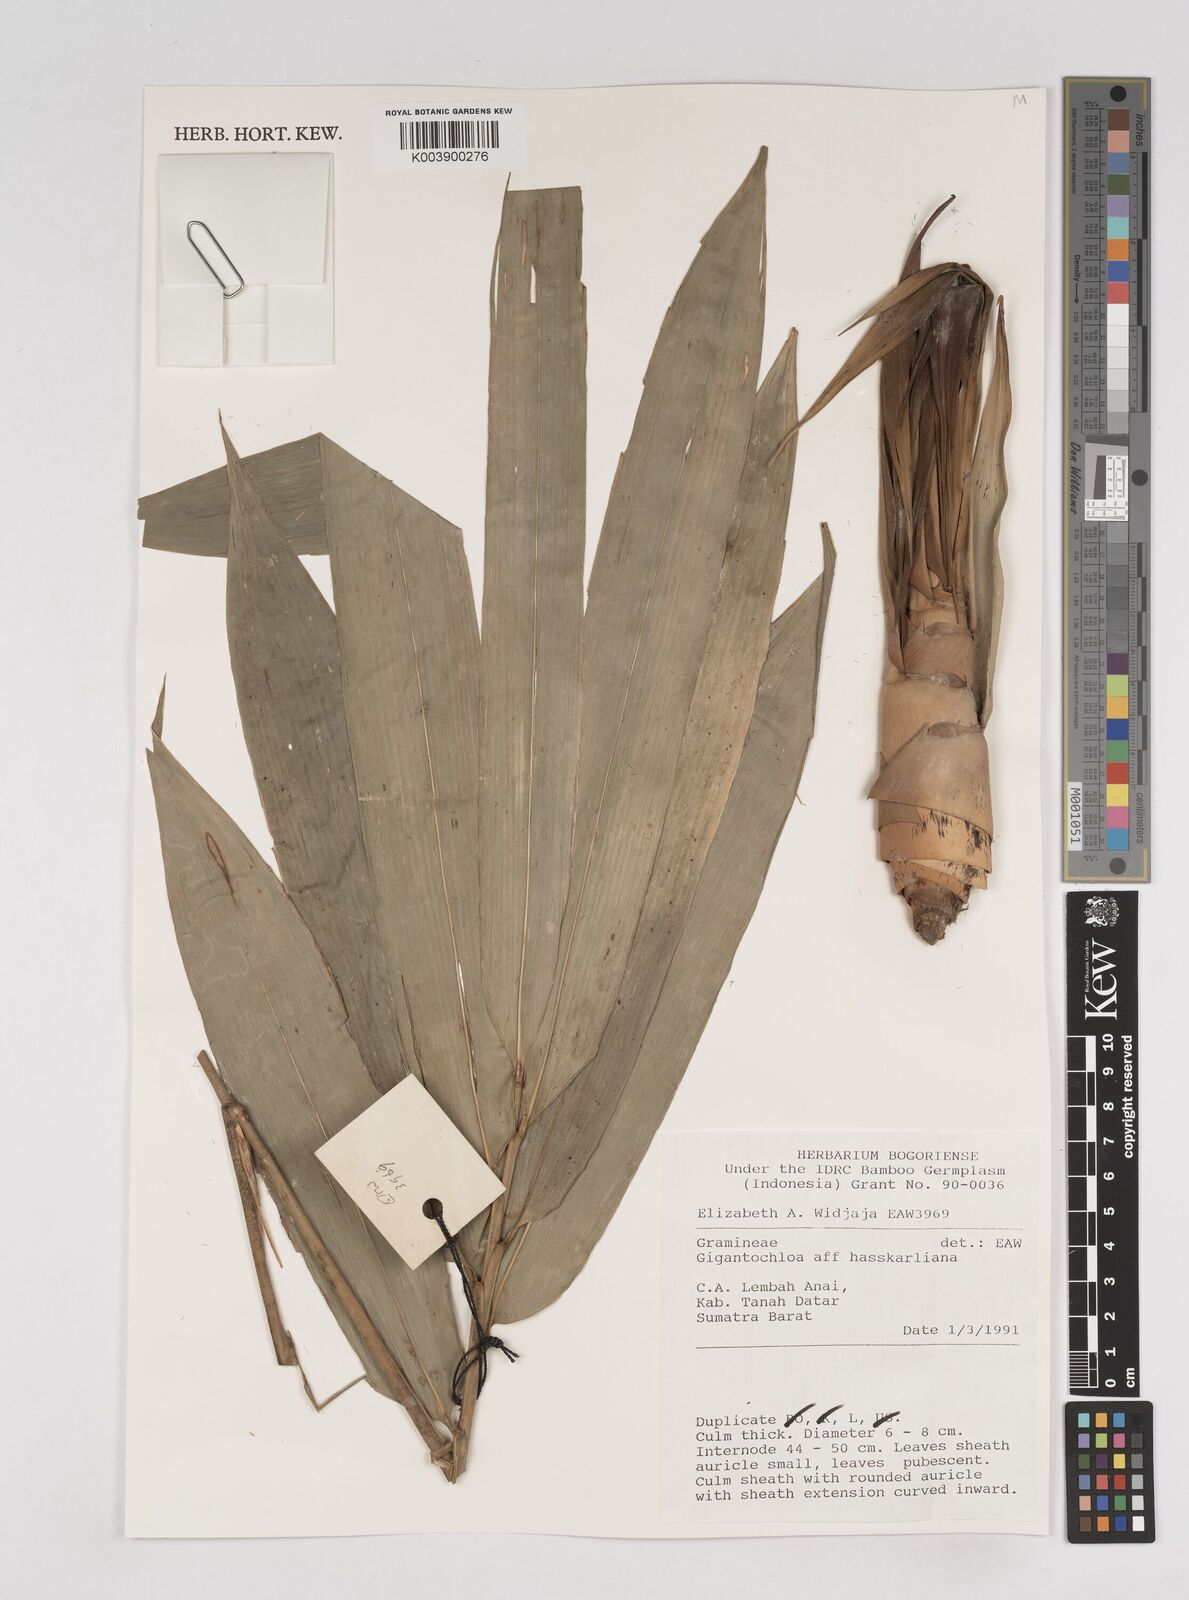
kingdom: Plantae
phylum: Tracheophyta
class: Liliopsida
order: Poales
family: Poaceae
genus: Gigantochloa
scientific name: Gigantochloa hasskarliana
